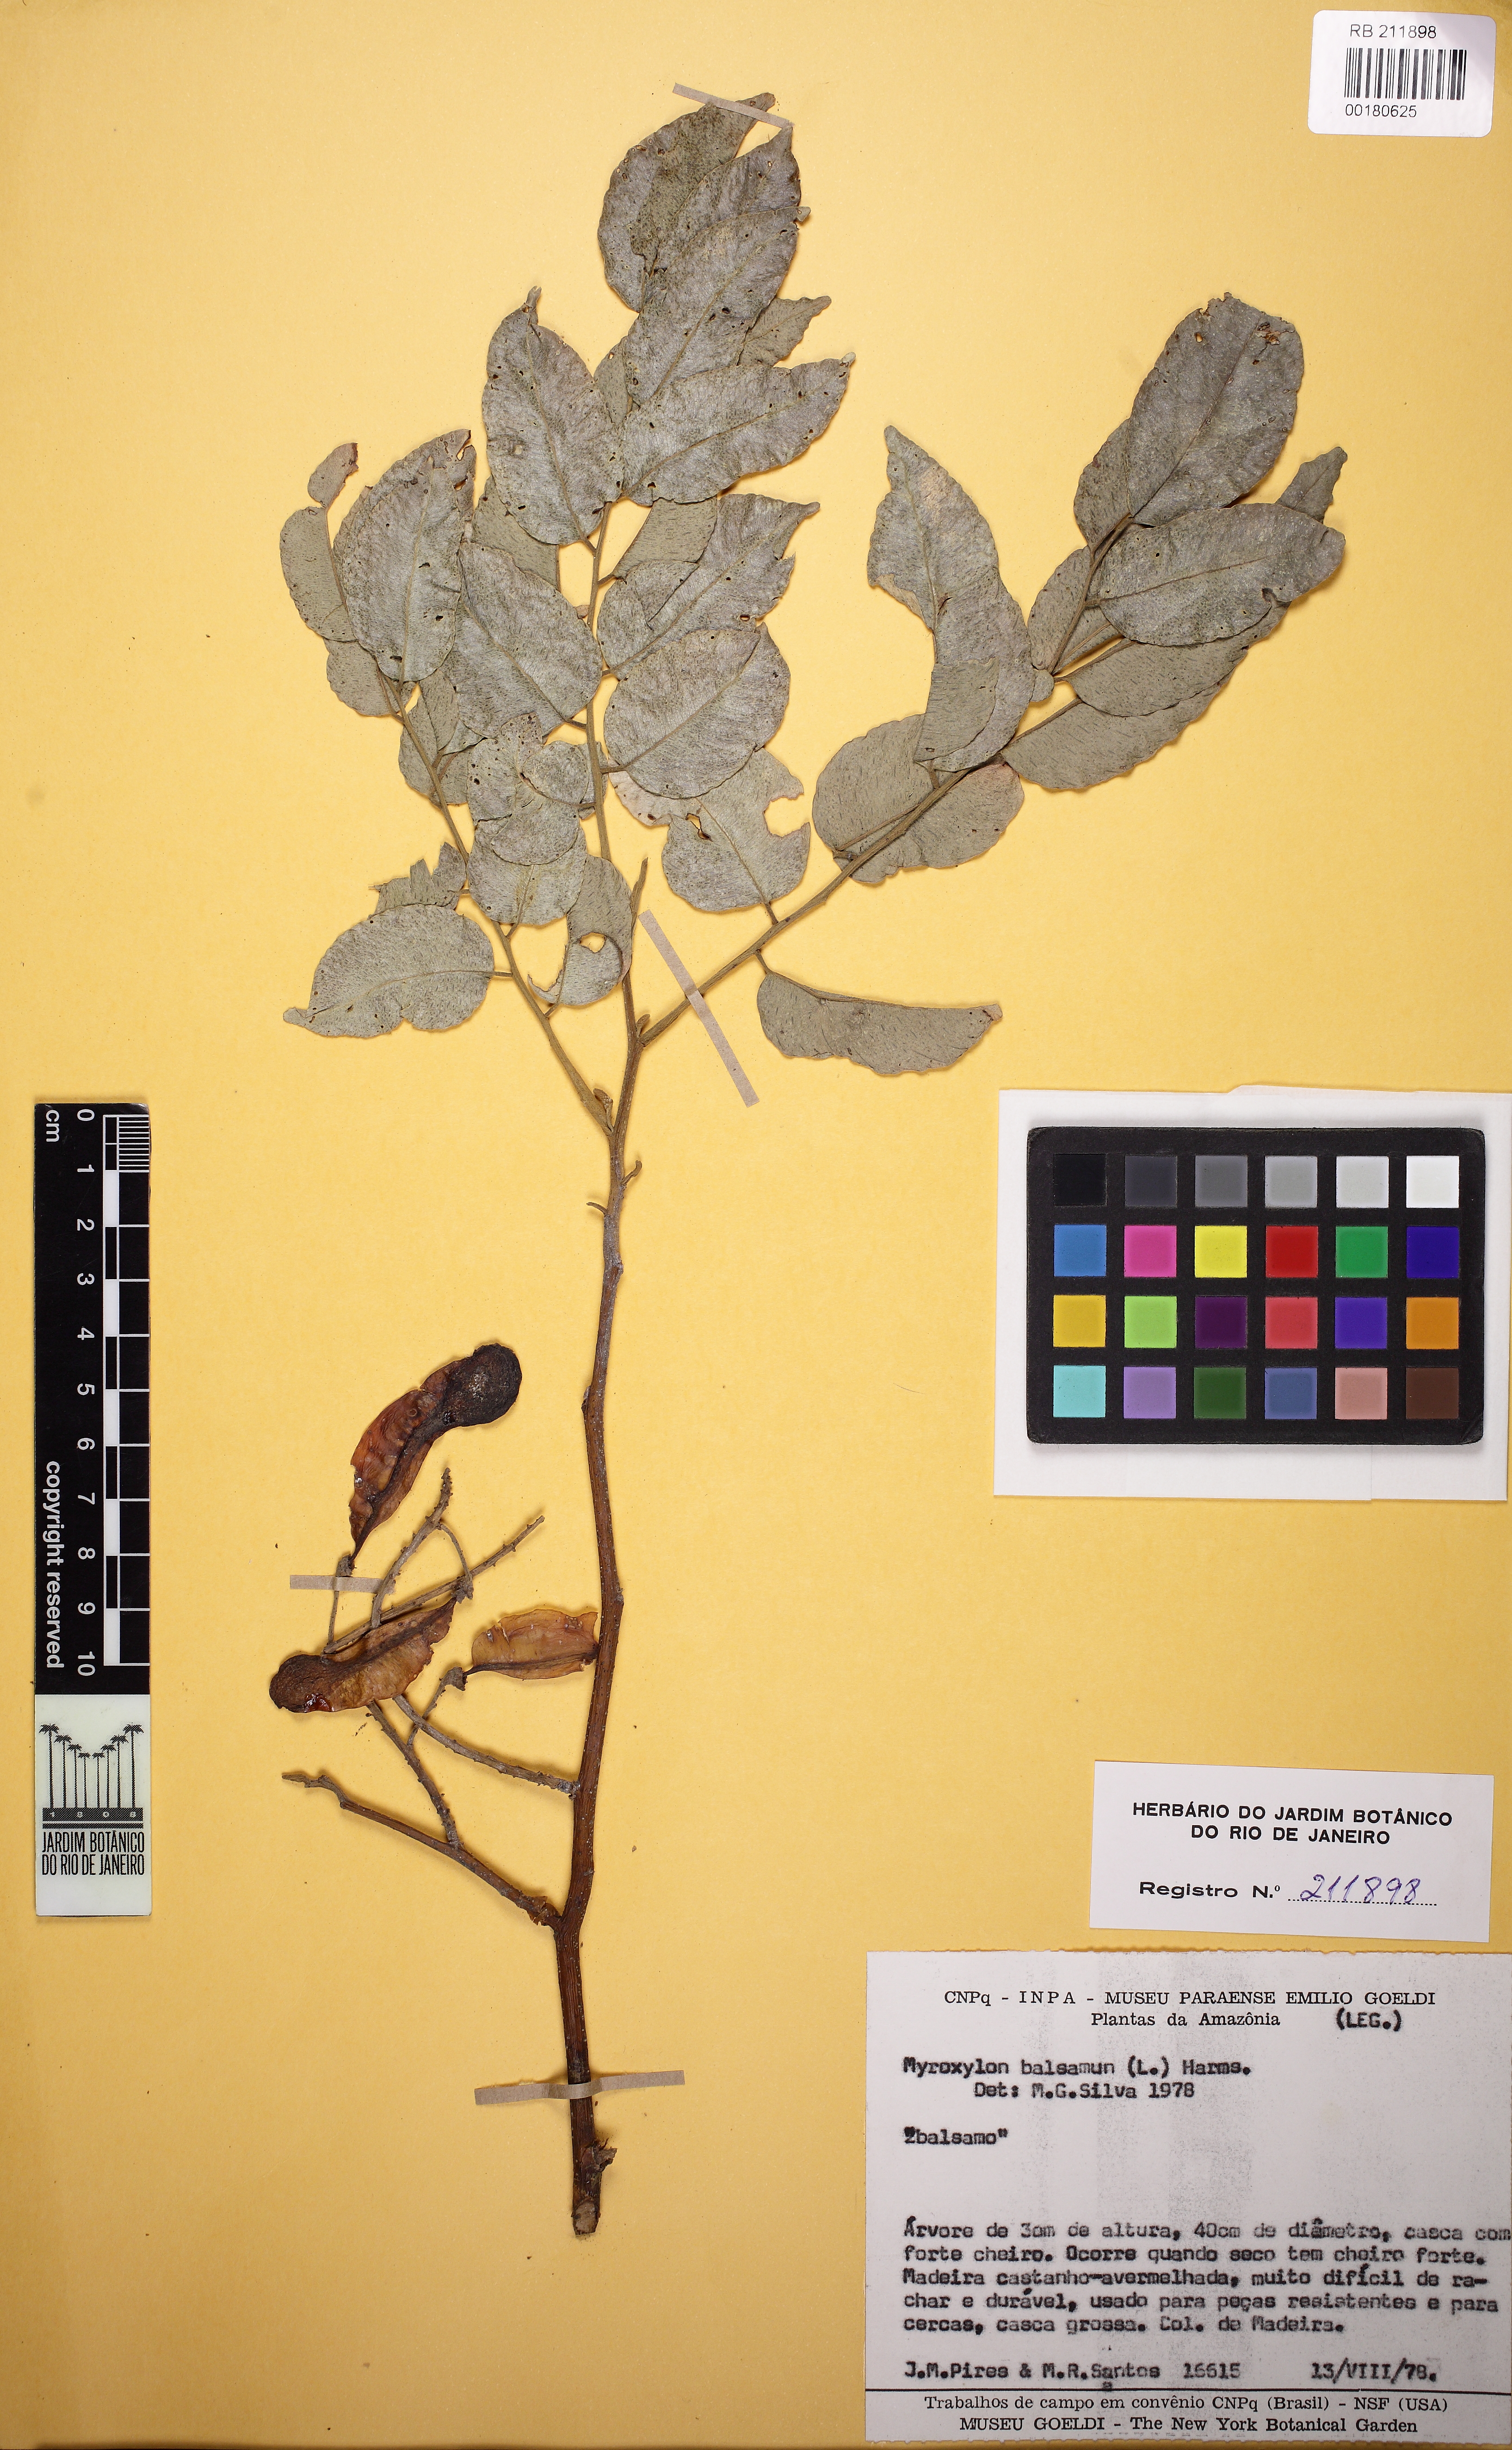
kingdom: Plantae
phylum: Tracheophyta
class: Magnoliopsida
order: Fabales
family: Fabaceae
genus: Myroxylon
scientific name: Myroxylon balsamum
